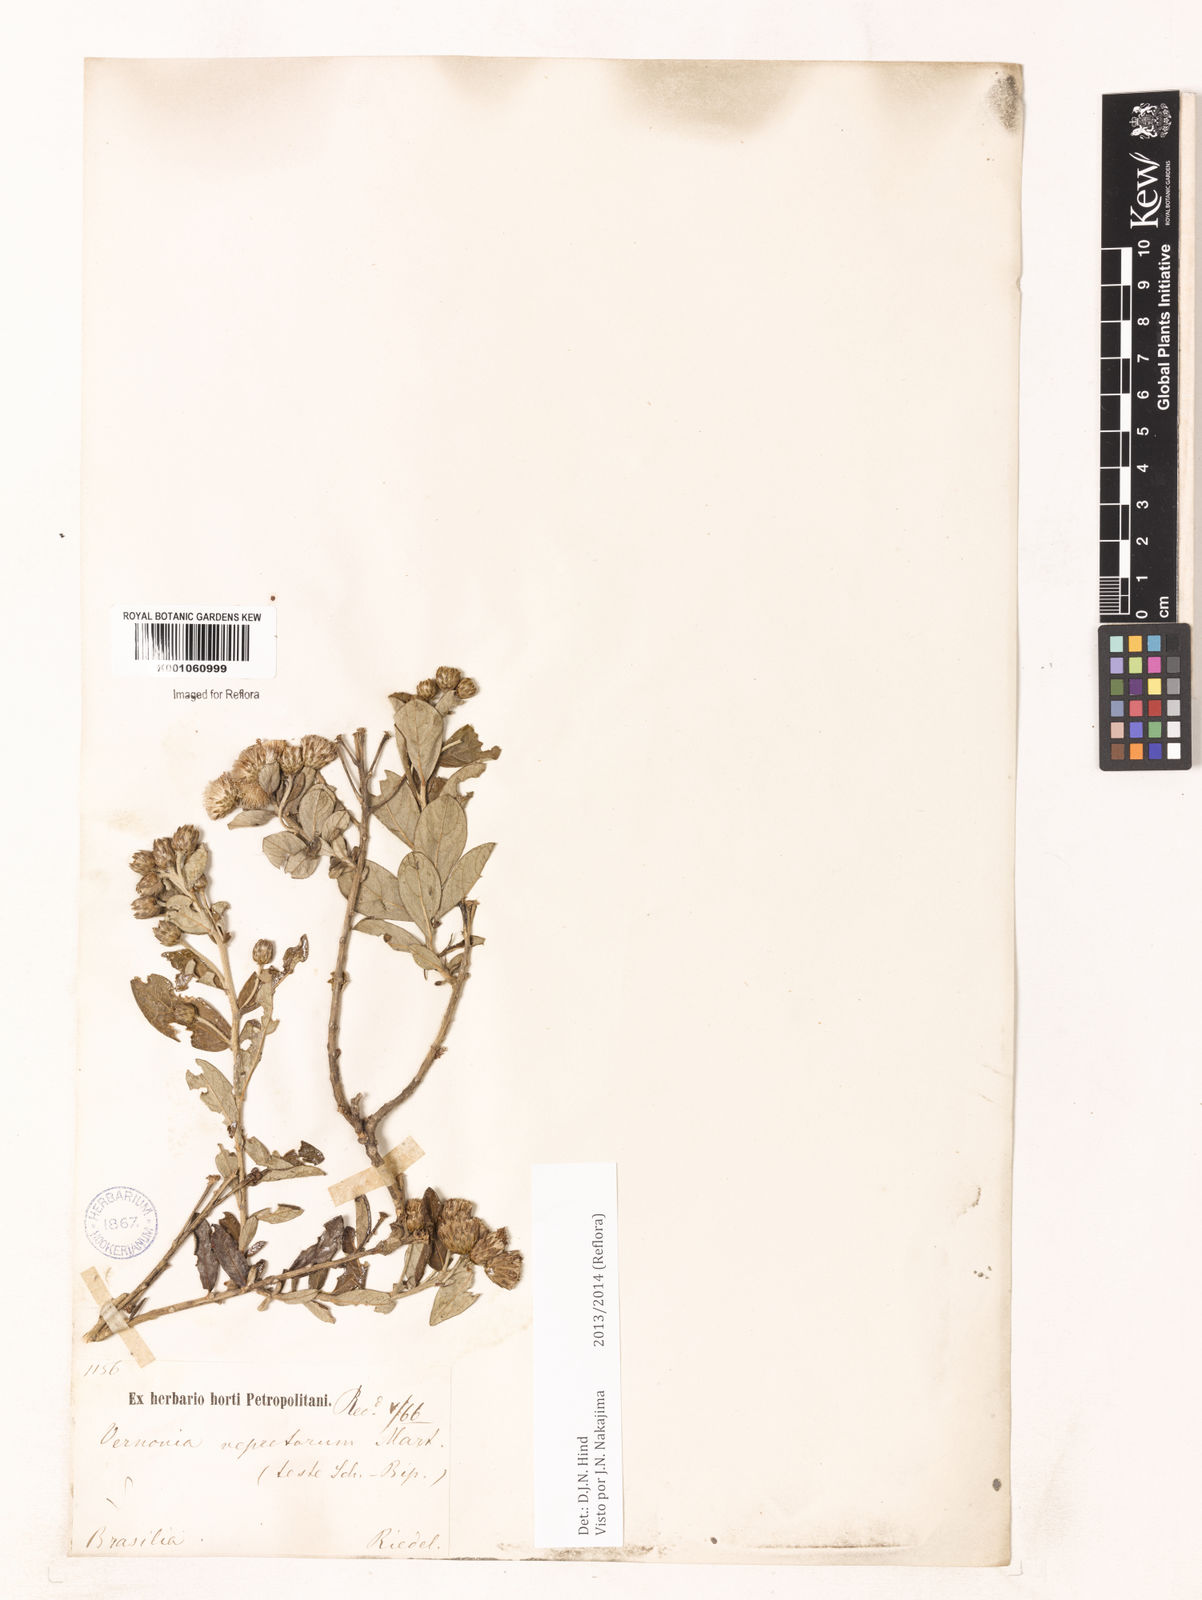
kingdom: Plantae
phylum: Tracheophyta
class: Magnoliopsida
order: Asterales
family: Asteraceae
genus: Lessingianthus
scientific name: Lessingianthus vepretorum
